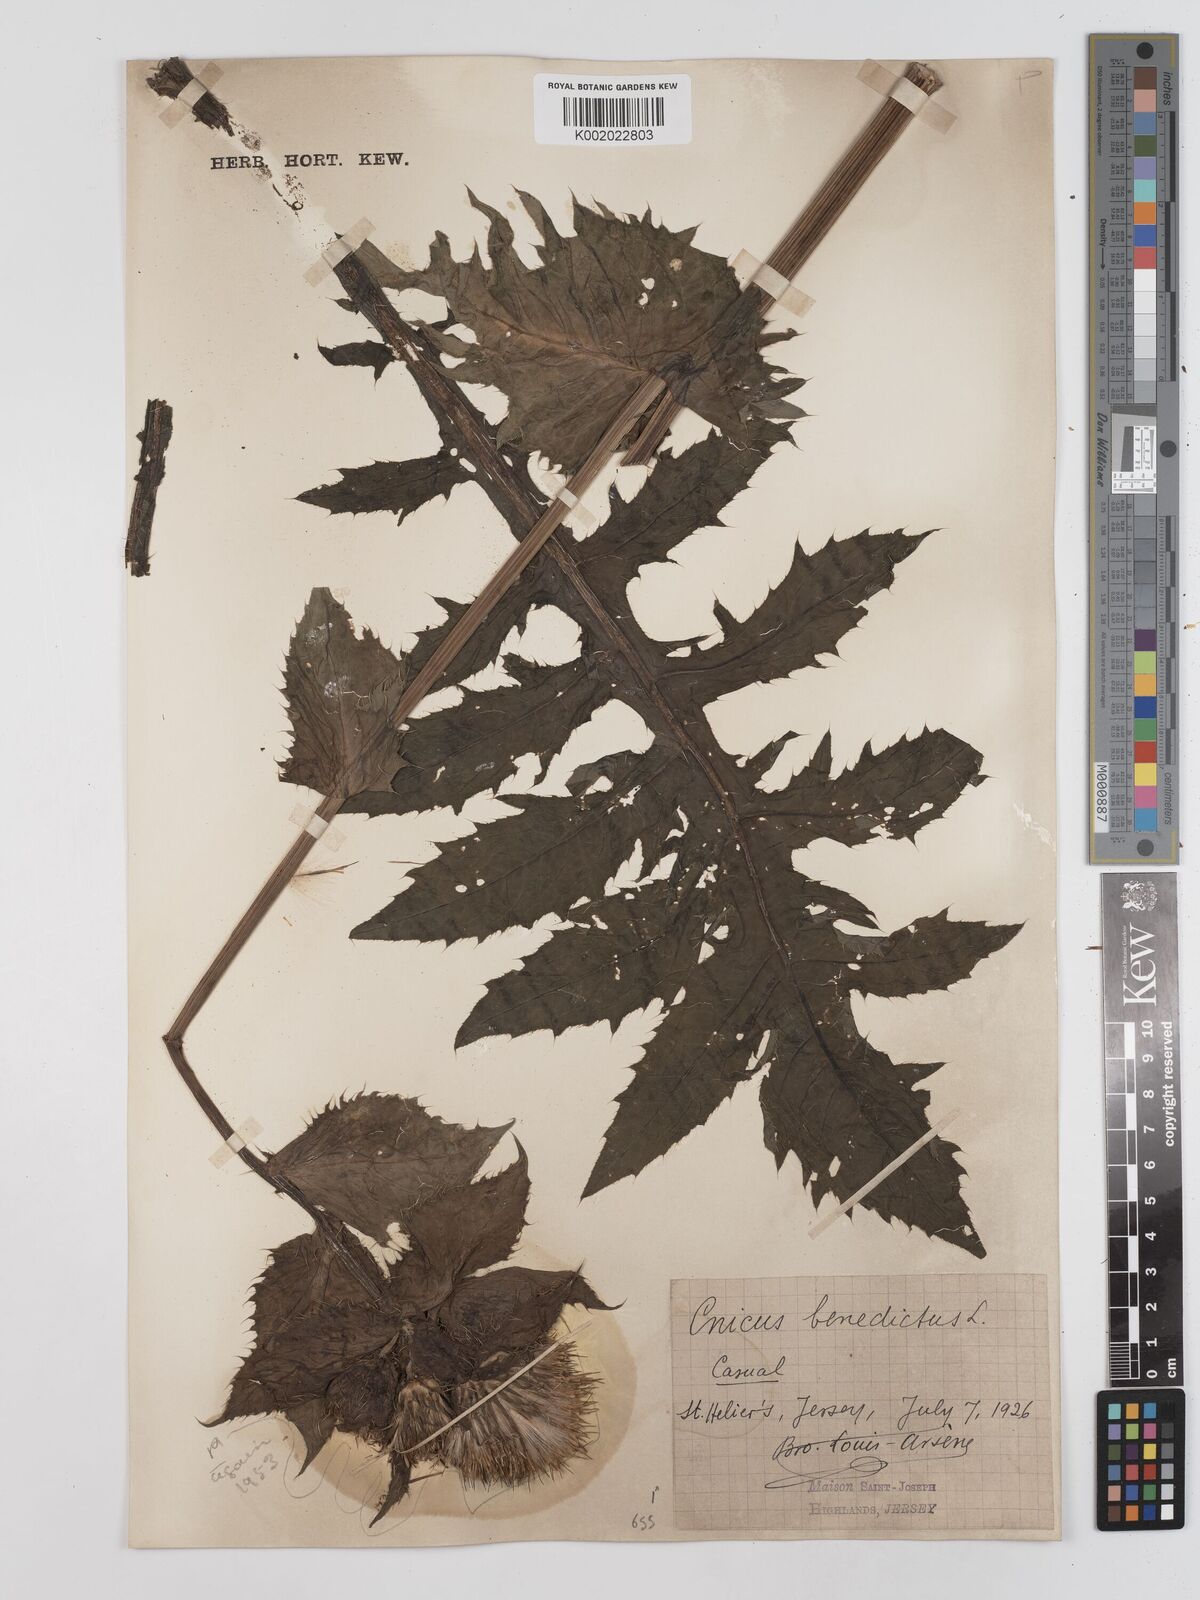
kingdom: Plantae
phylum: Tracheophyta
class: Magnoliopsida
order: Asterales
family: Asteraceae
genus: Cirsium
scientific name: Cirsium acaule
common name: Dwarf thistle
